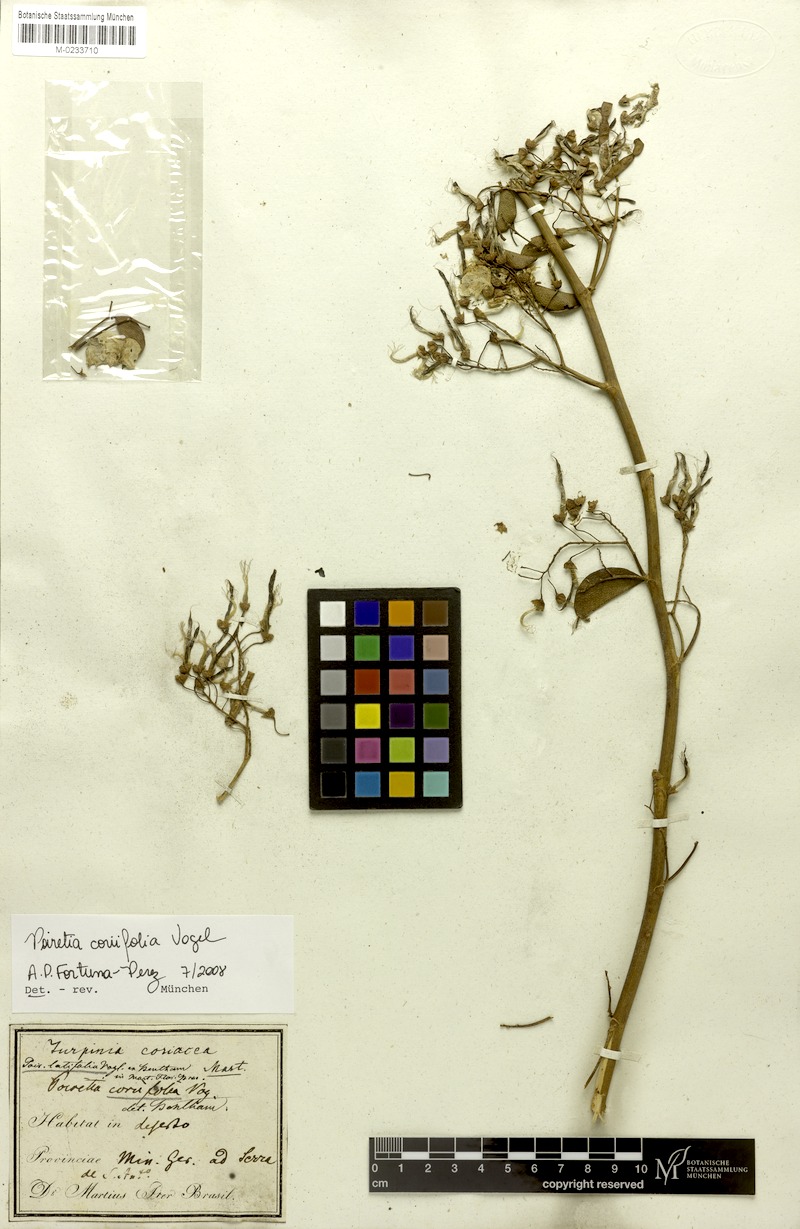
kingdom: Plantae
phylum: Tracheophyta
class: Magnoliopsida
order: Fabales
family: Fabaceae
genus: Poiretia
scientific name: Poiretia coriifolia
